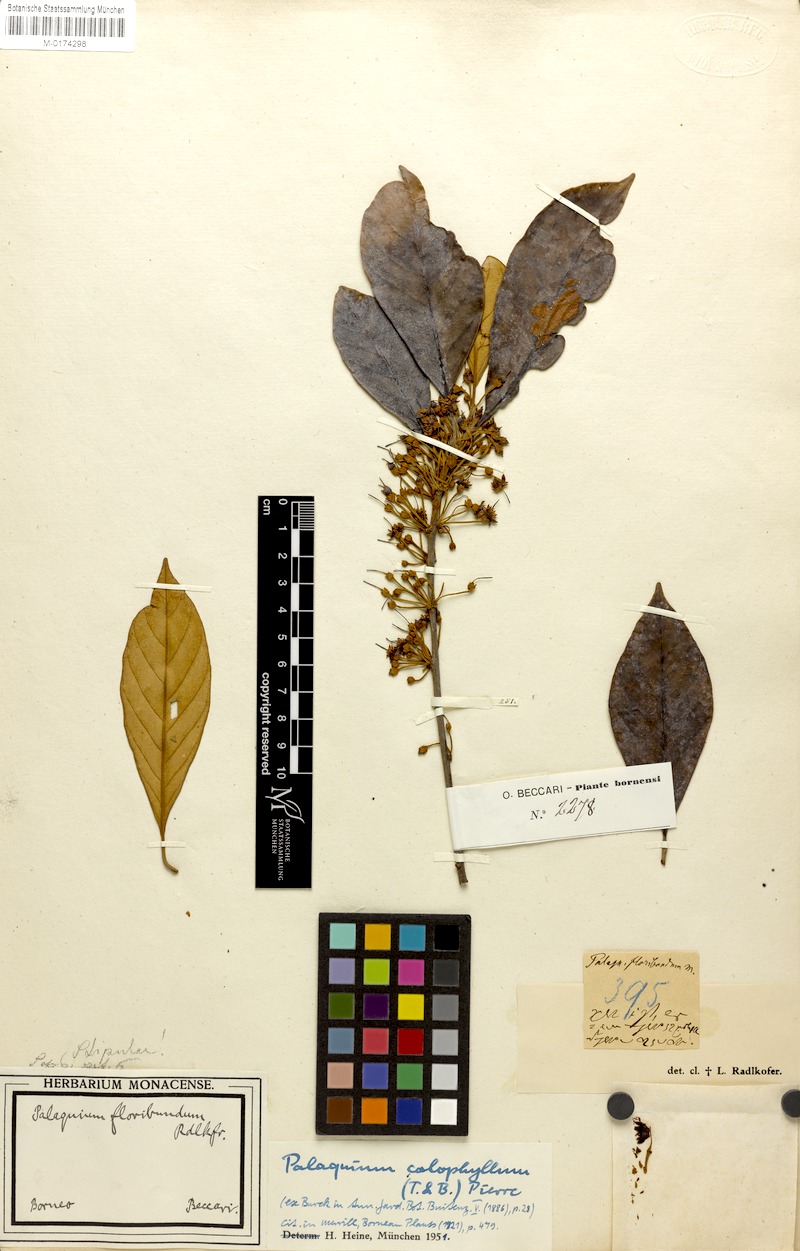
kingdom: Plantae
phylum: Tracheophyta
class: Magnoliopsida
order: Ericales
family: Sapotaceae
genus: Palaquium
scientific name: Palaquium
